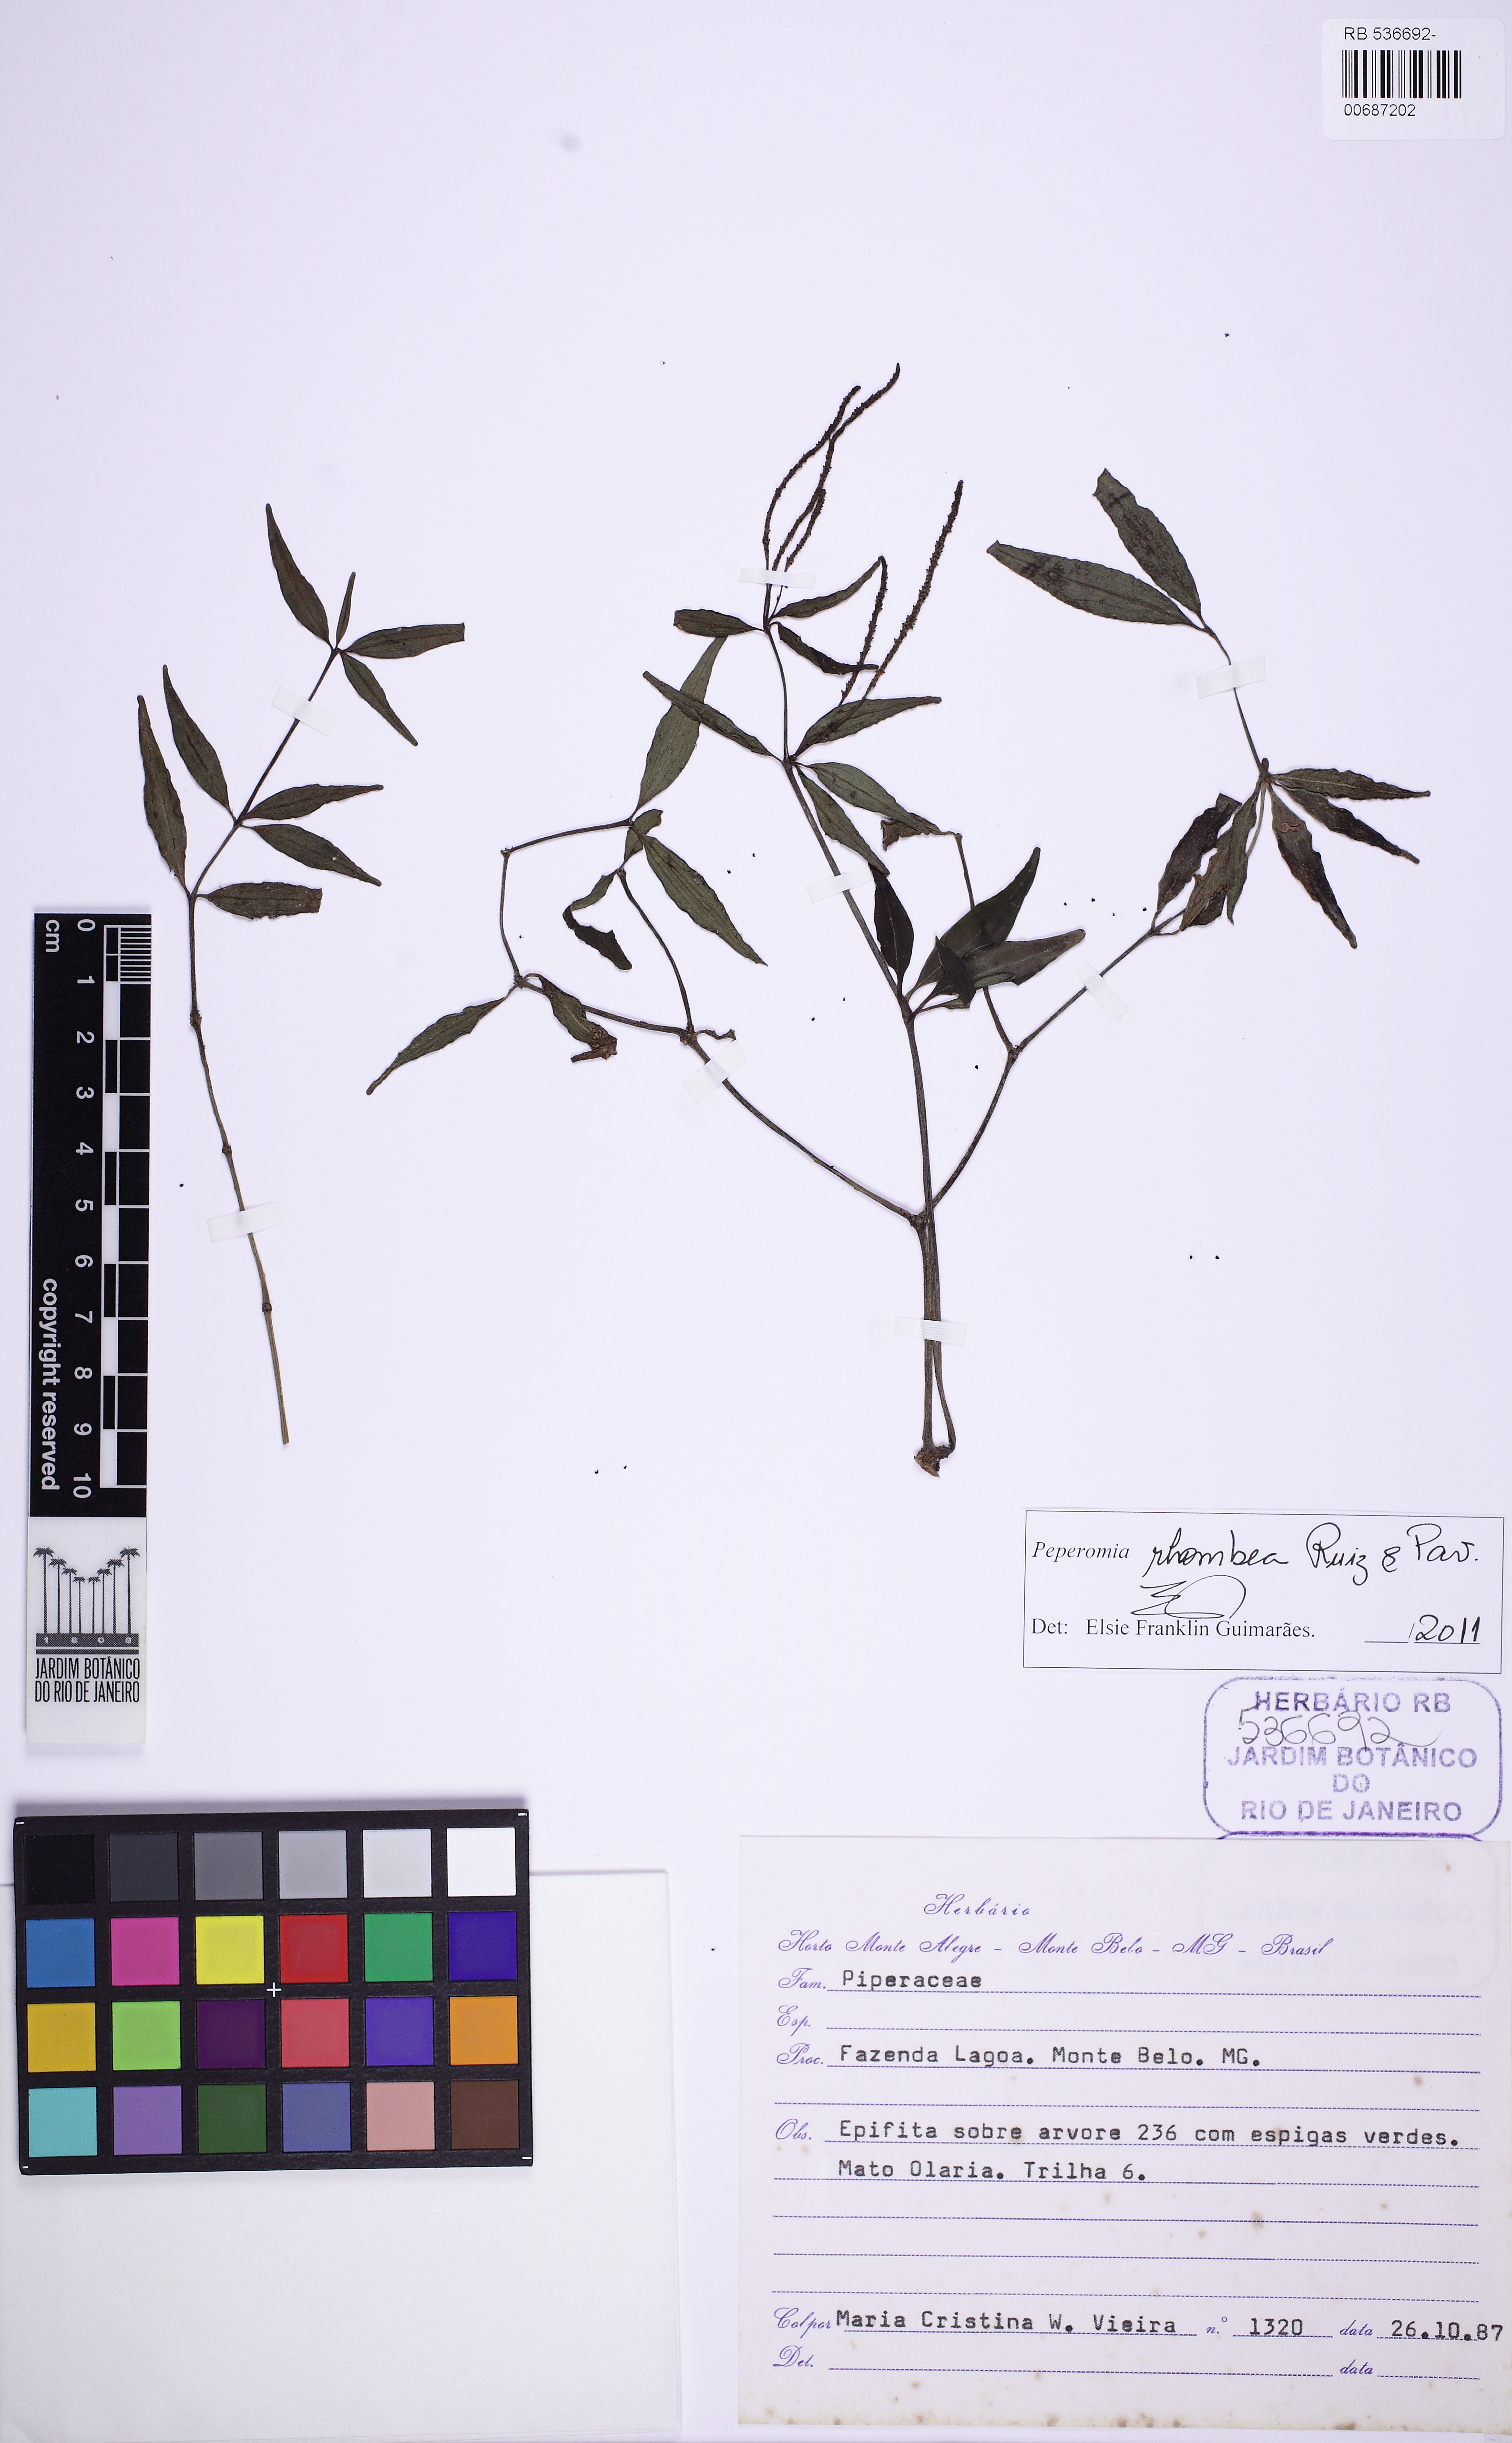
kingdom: Plantae
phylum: Tracheophyta
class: Magnoliopsida
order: Piperales
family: Piperaceae
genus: Peperomia
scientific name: Peperomia rhombea
